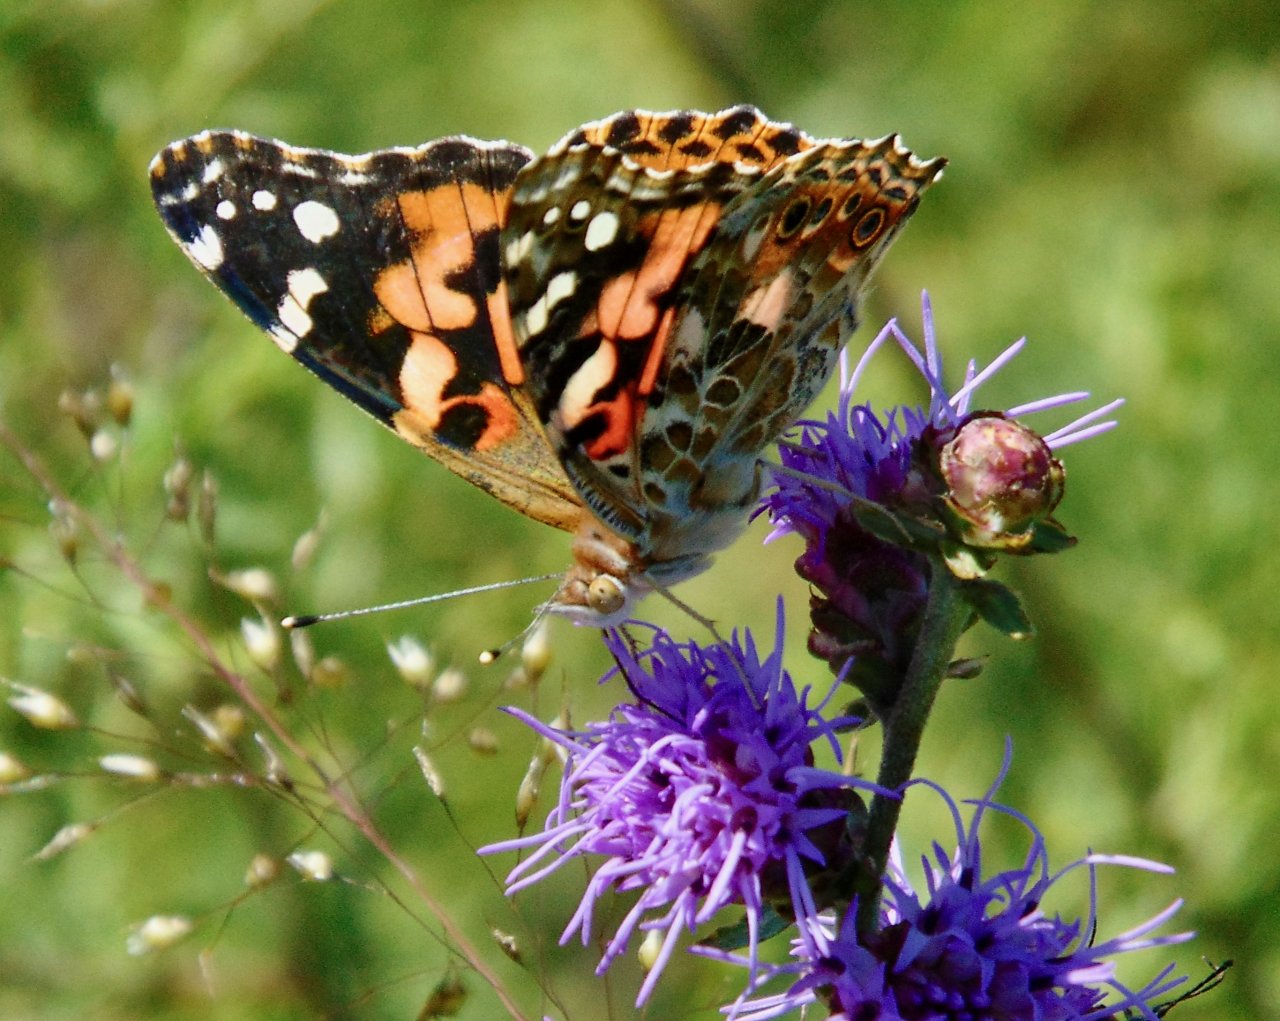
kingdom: Animalia
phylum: Arthropoda
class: Insecta
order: Lepidoptera
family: Nymphalidae
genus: Vanessa
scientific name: Vanessa cardui
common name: Painted Lady
